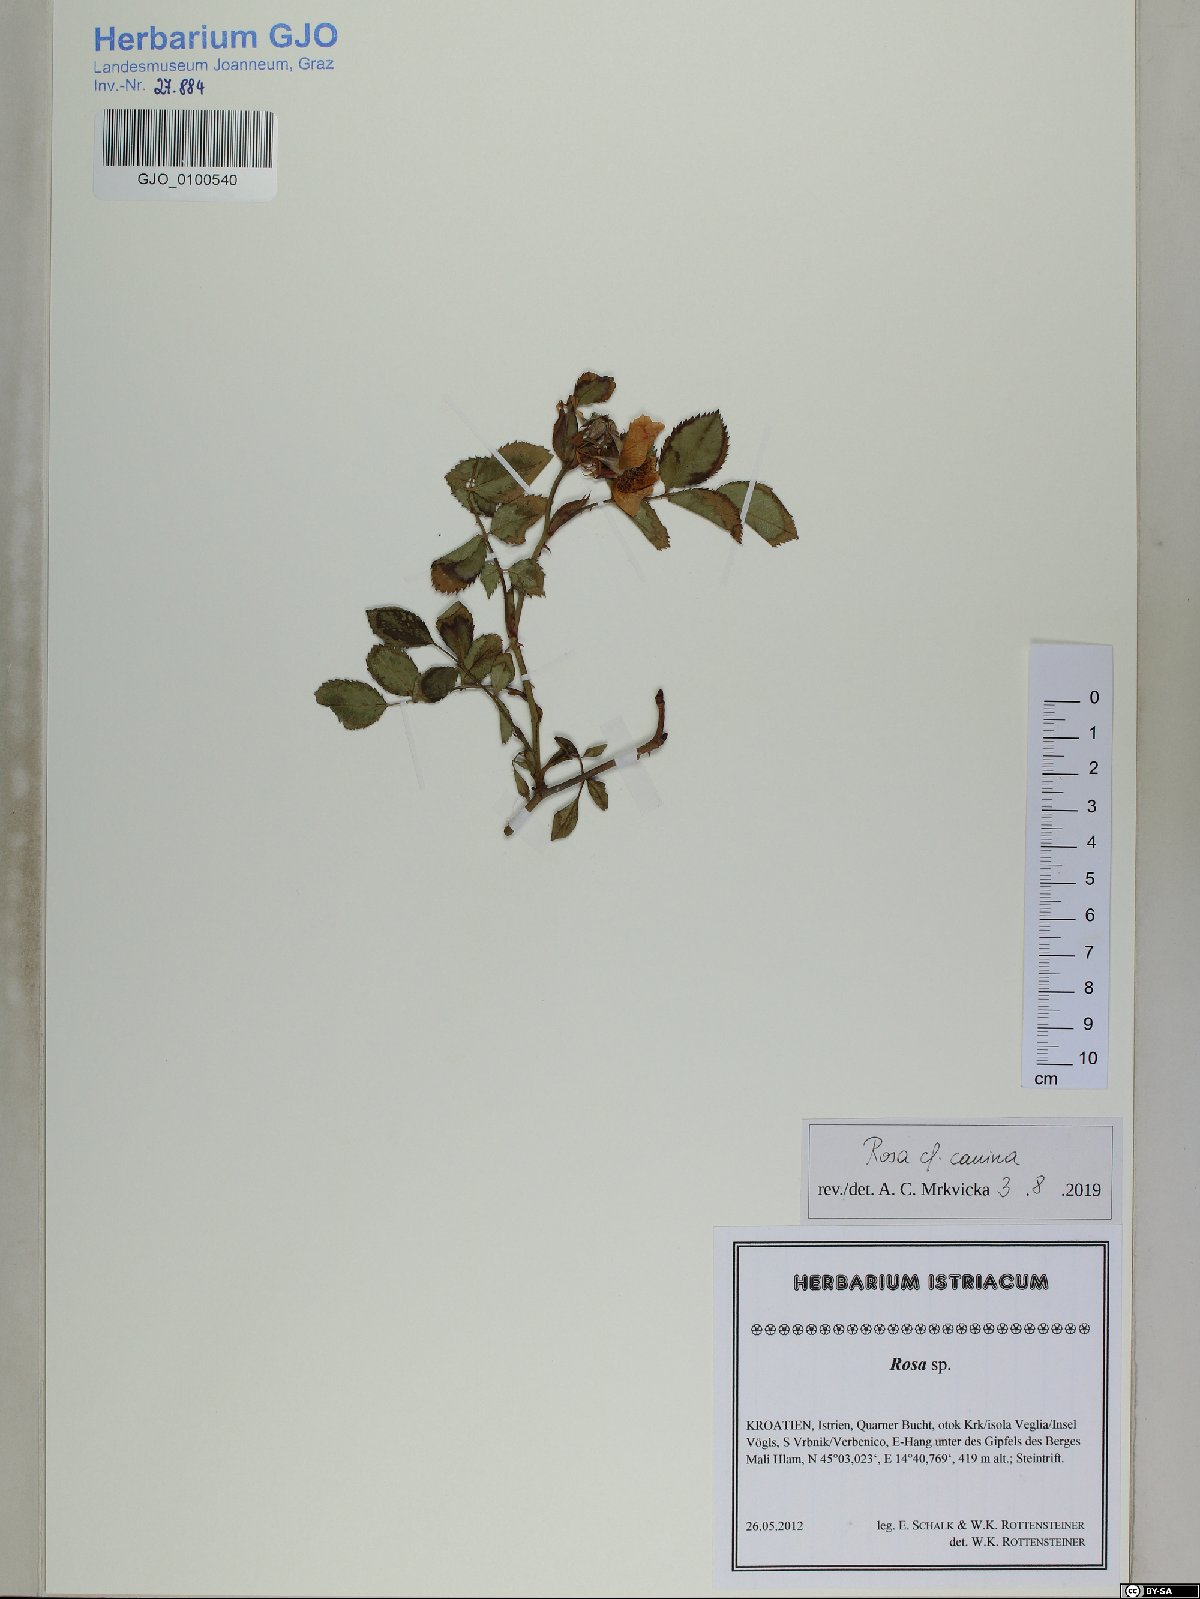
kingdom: Plantae
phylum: Tracheophyta
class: Magnoliopsida
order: Rosales
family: Rosaceae
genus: Rosa
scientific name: Rosa canina
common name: Dog rose
